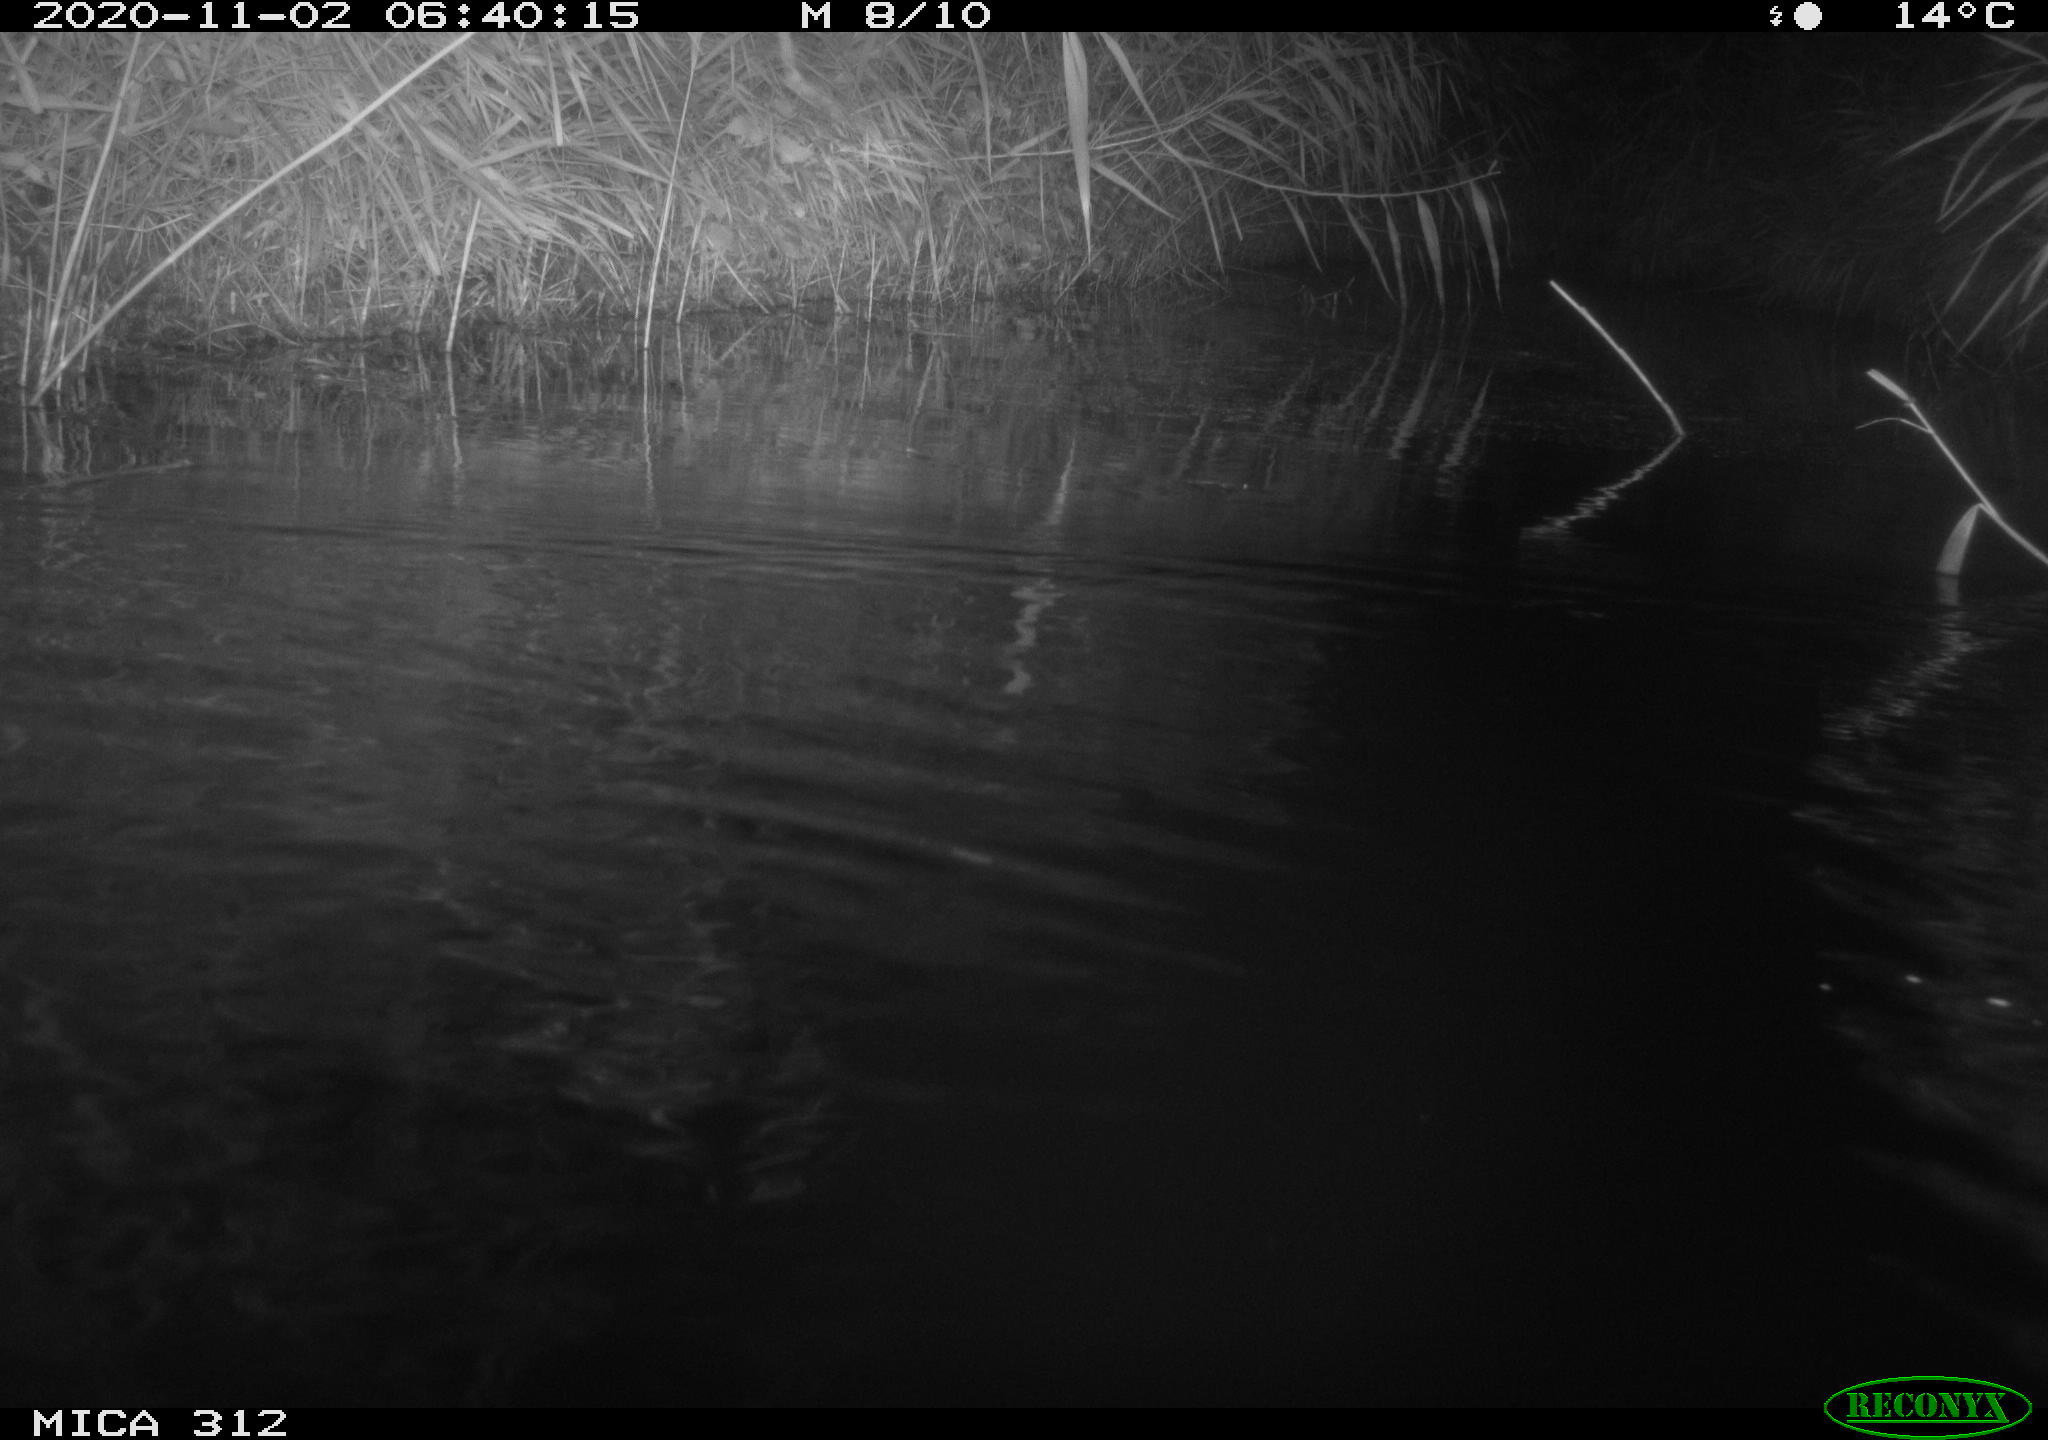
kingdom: Animalia
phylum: Chordata
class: Mammalia
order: Rodentia
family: Muridae
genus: Rattus
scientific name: Rattus norvegicus
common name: Brown rat
